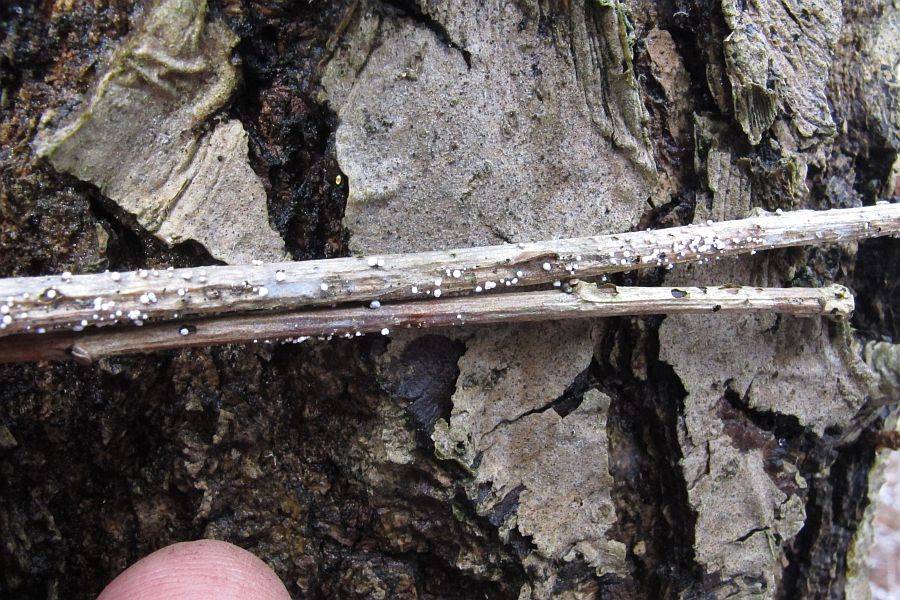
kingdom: Fungi
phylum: Ascomycota
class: Leotiomycetes
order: Helotiales
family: Lachnaceae
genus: Capitotricha
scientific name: Capitotricha bicolor
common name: prægtig frynseskive
